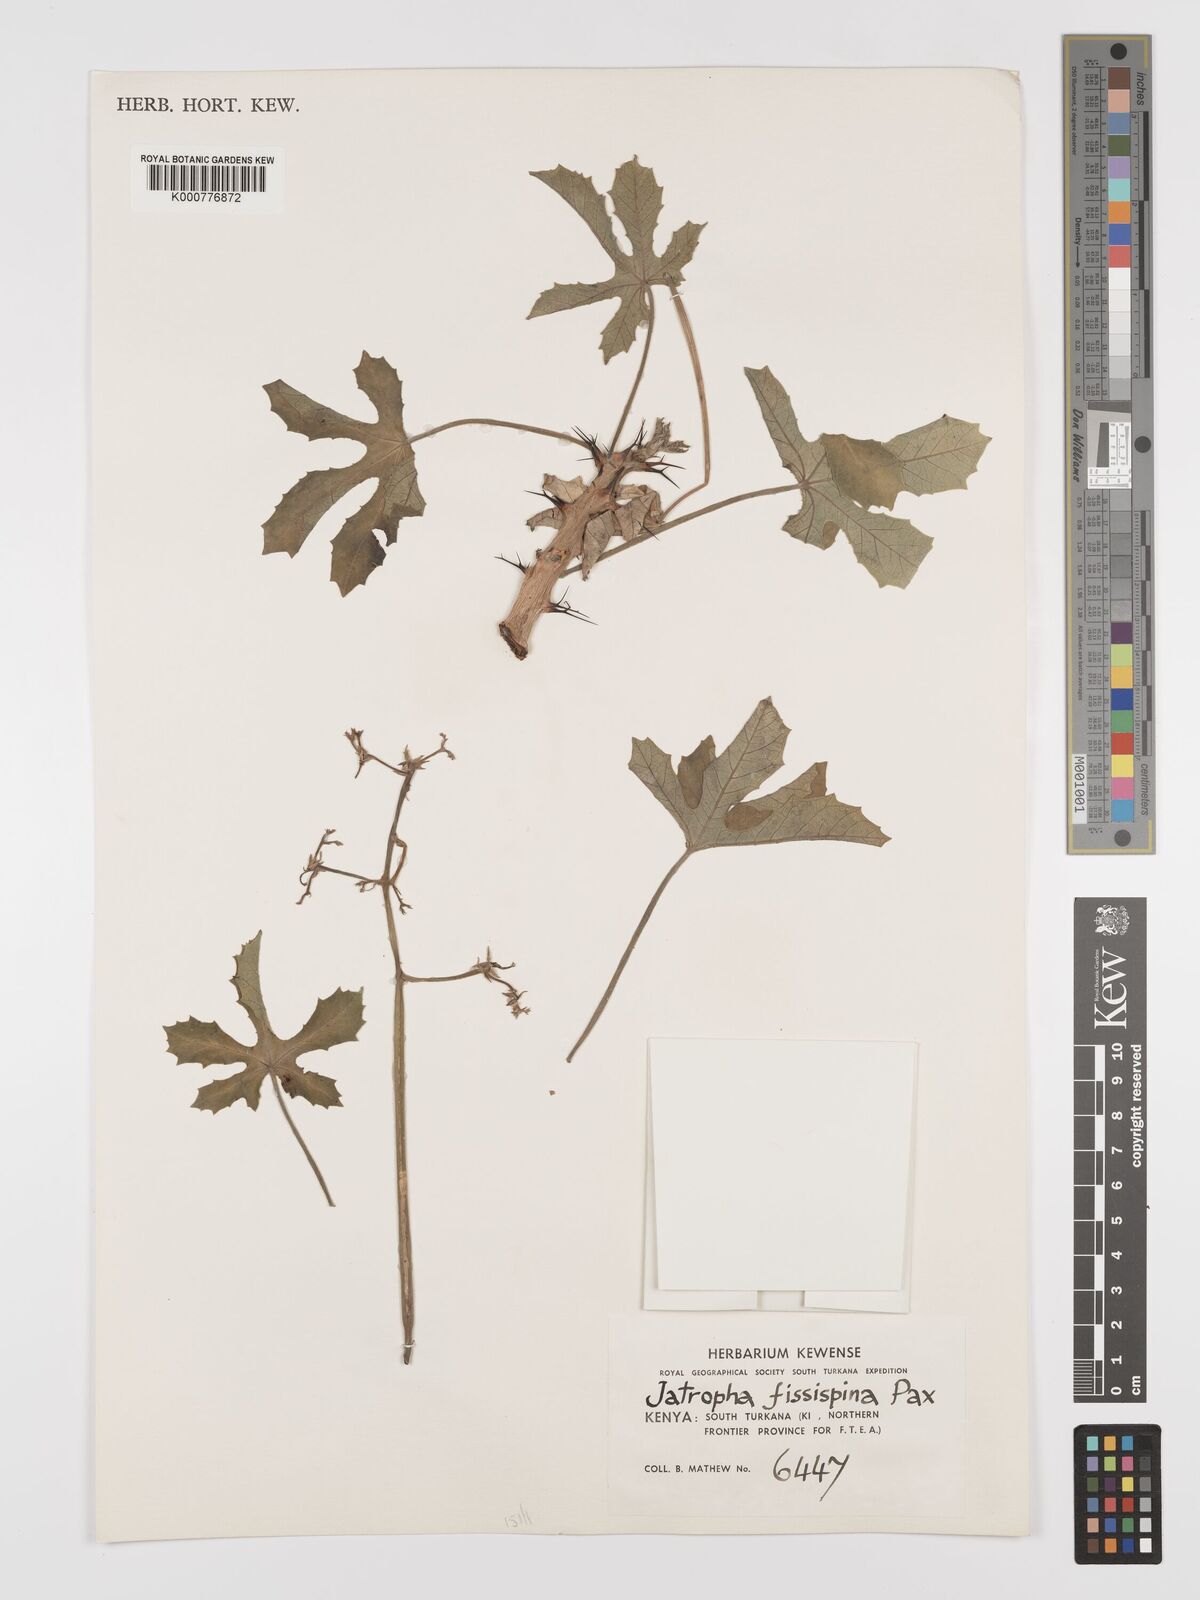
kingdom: Plantae
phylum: Tracheophyta
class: Magnoliopsida
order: Malpighiales
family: Euphorbiaceae
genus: Jatropha
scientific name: Jatropha ellenbeckii
